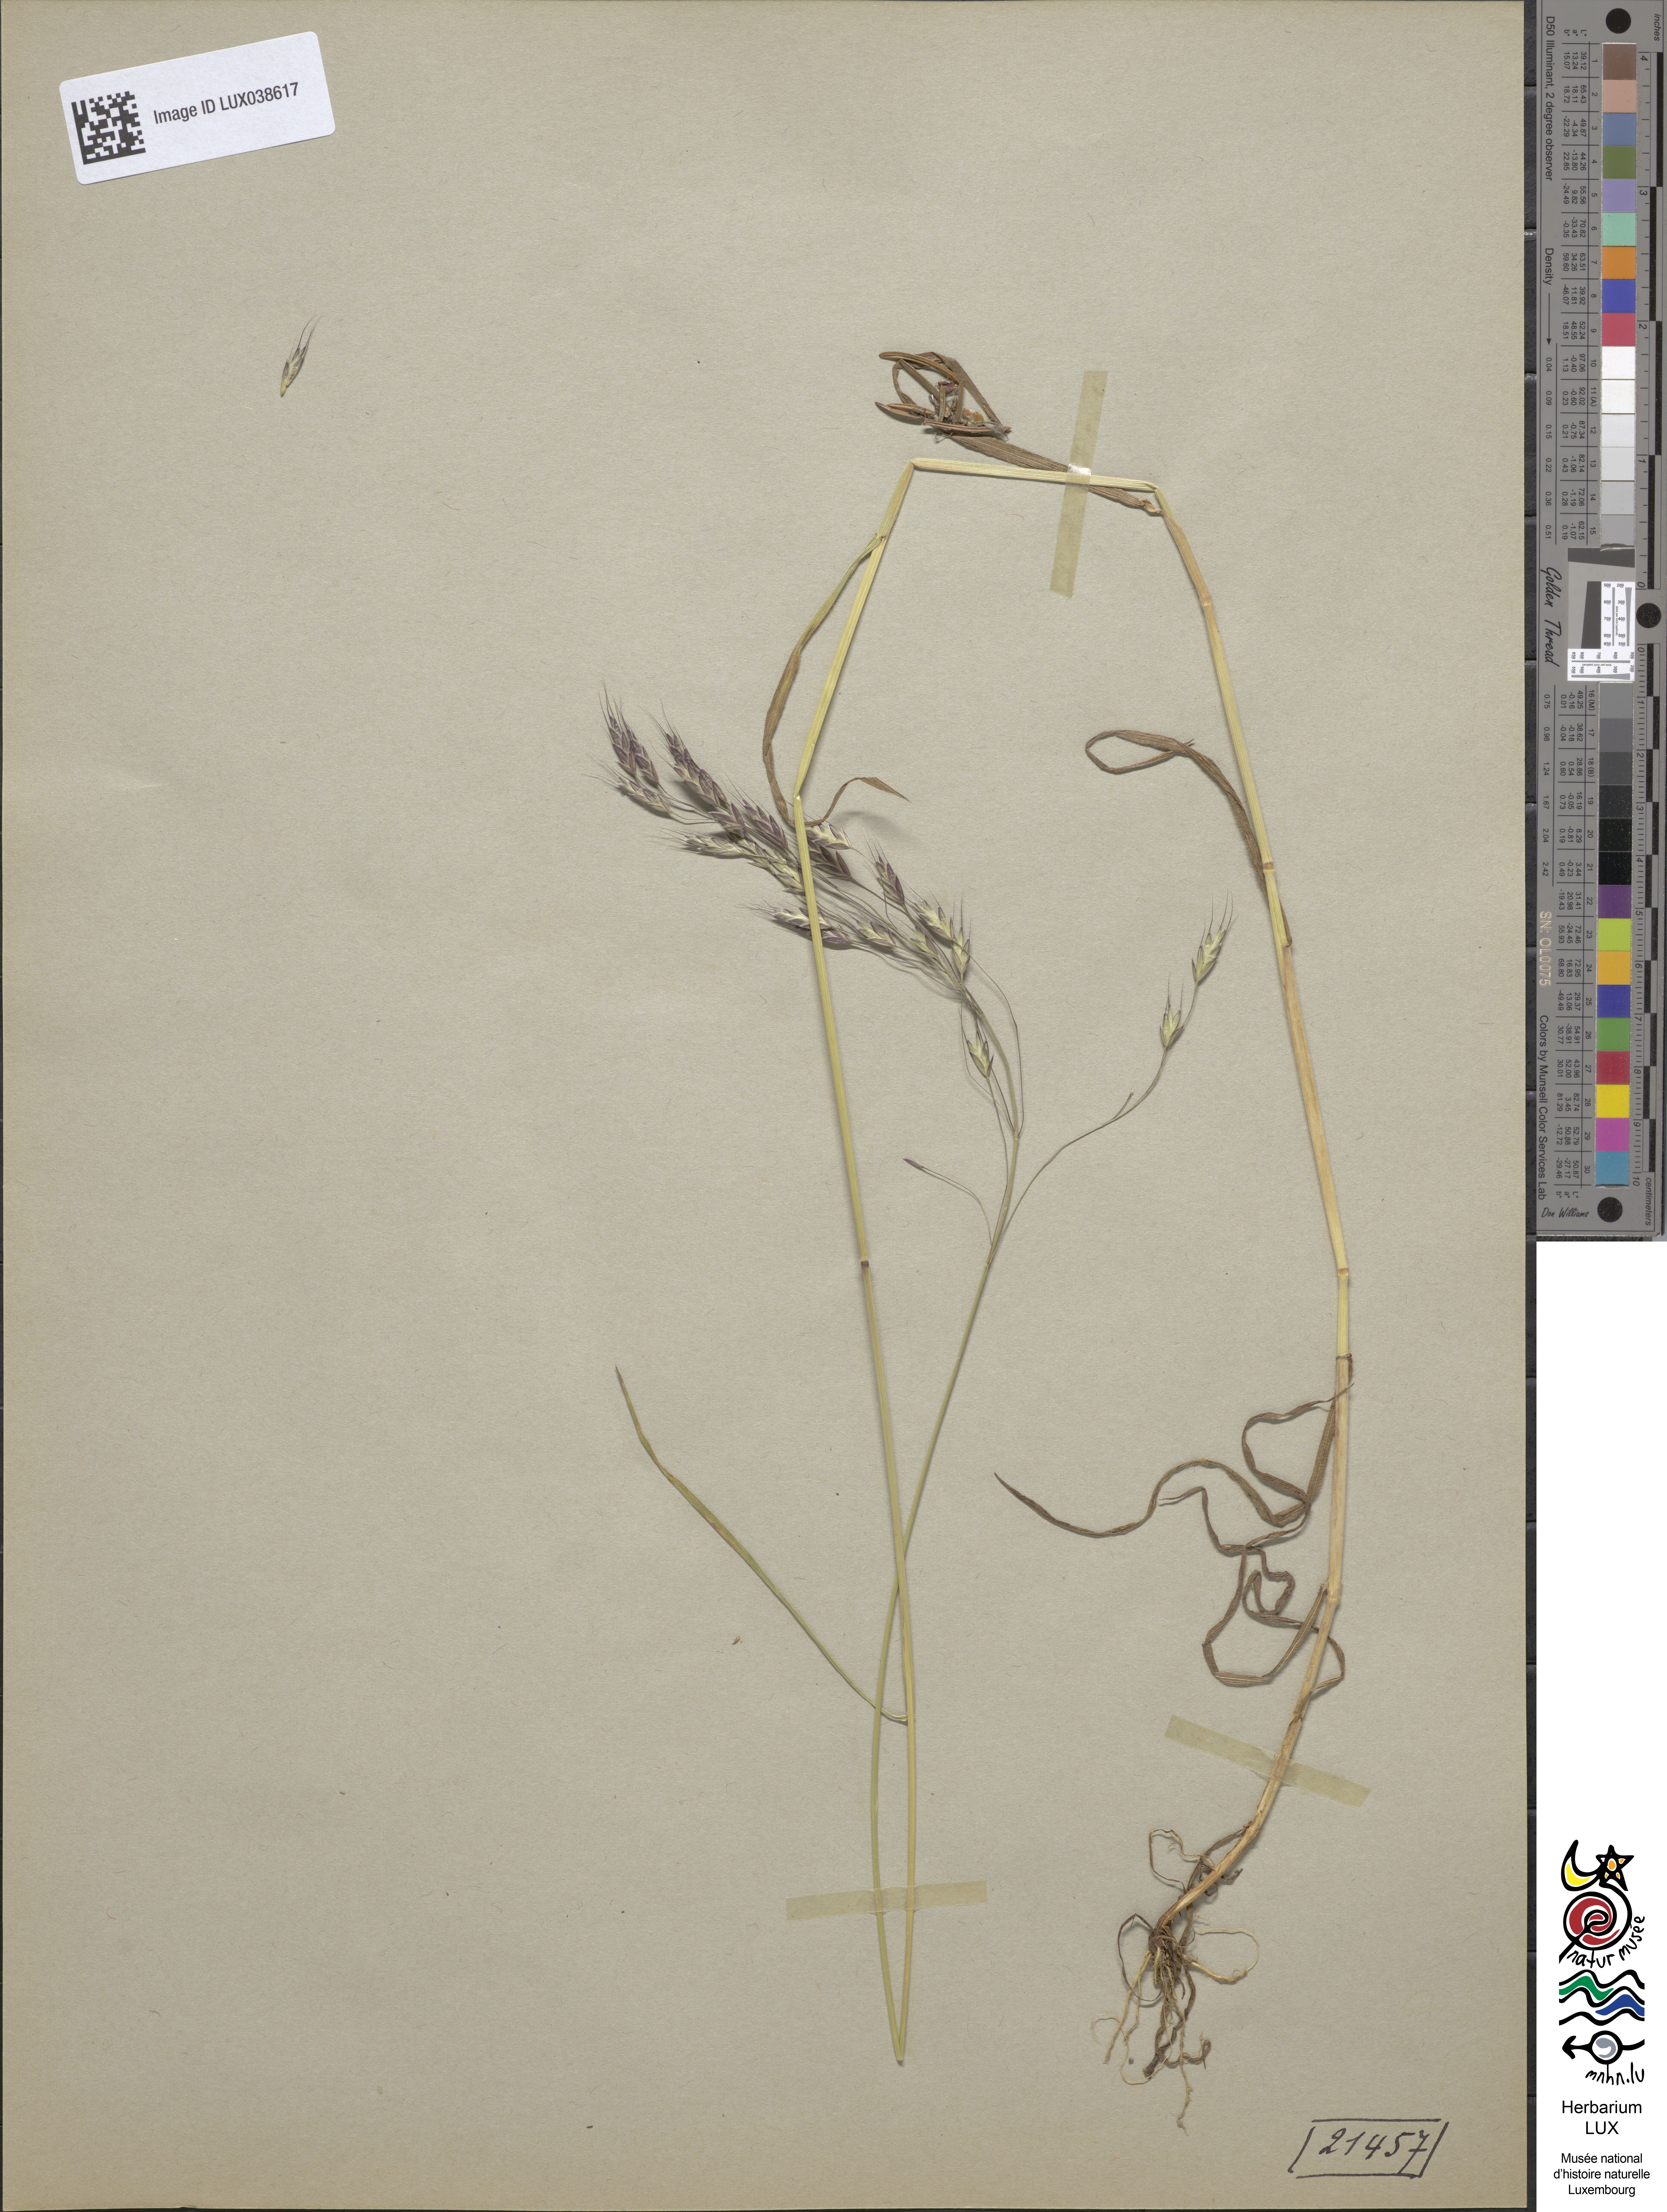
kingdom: Plantae
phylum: Tracheophyta
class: Liliopsida
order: Poales
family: Poaceae
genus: Bromus
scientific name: Bromus arvensis
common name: Field brome
